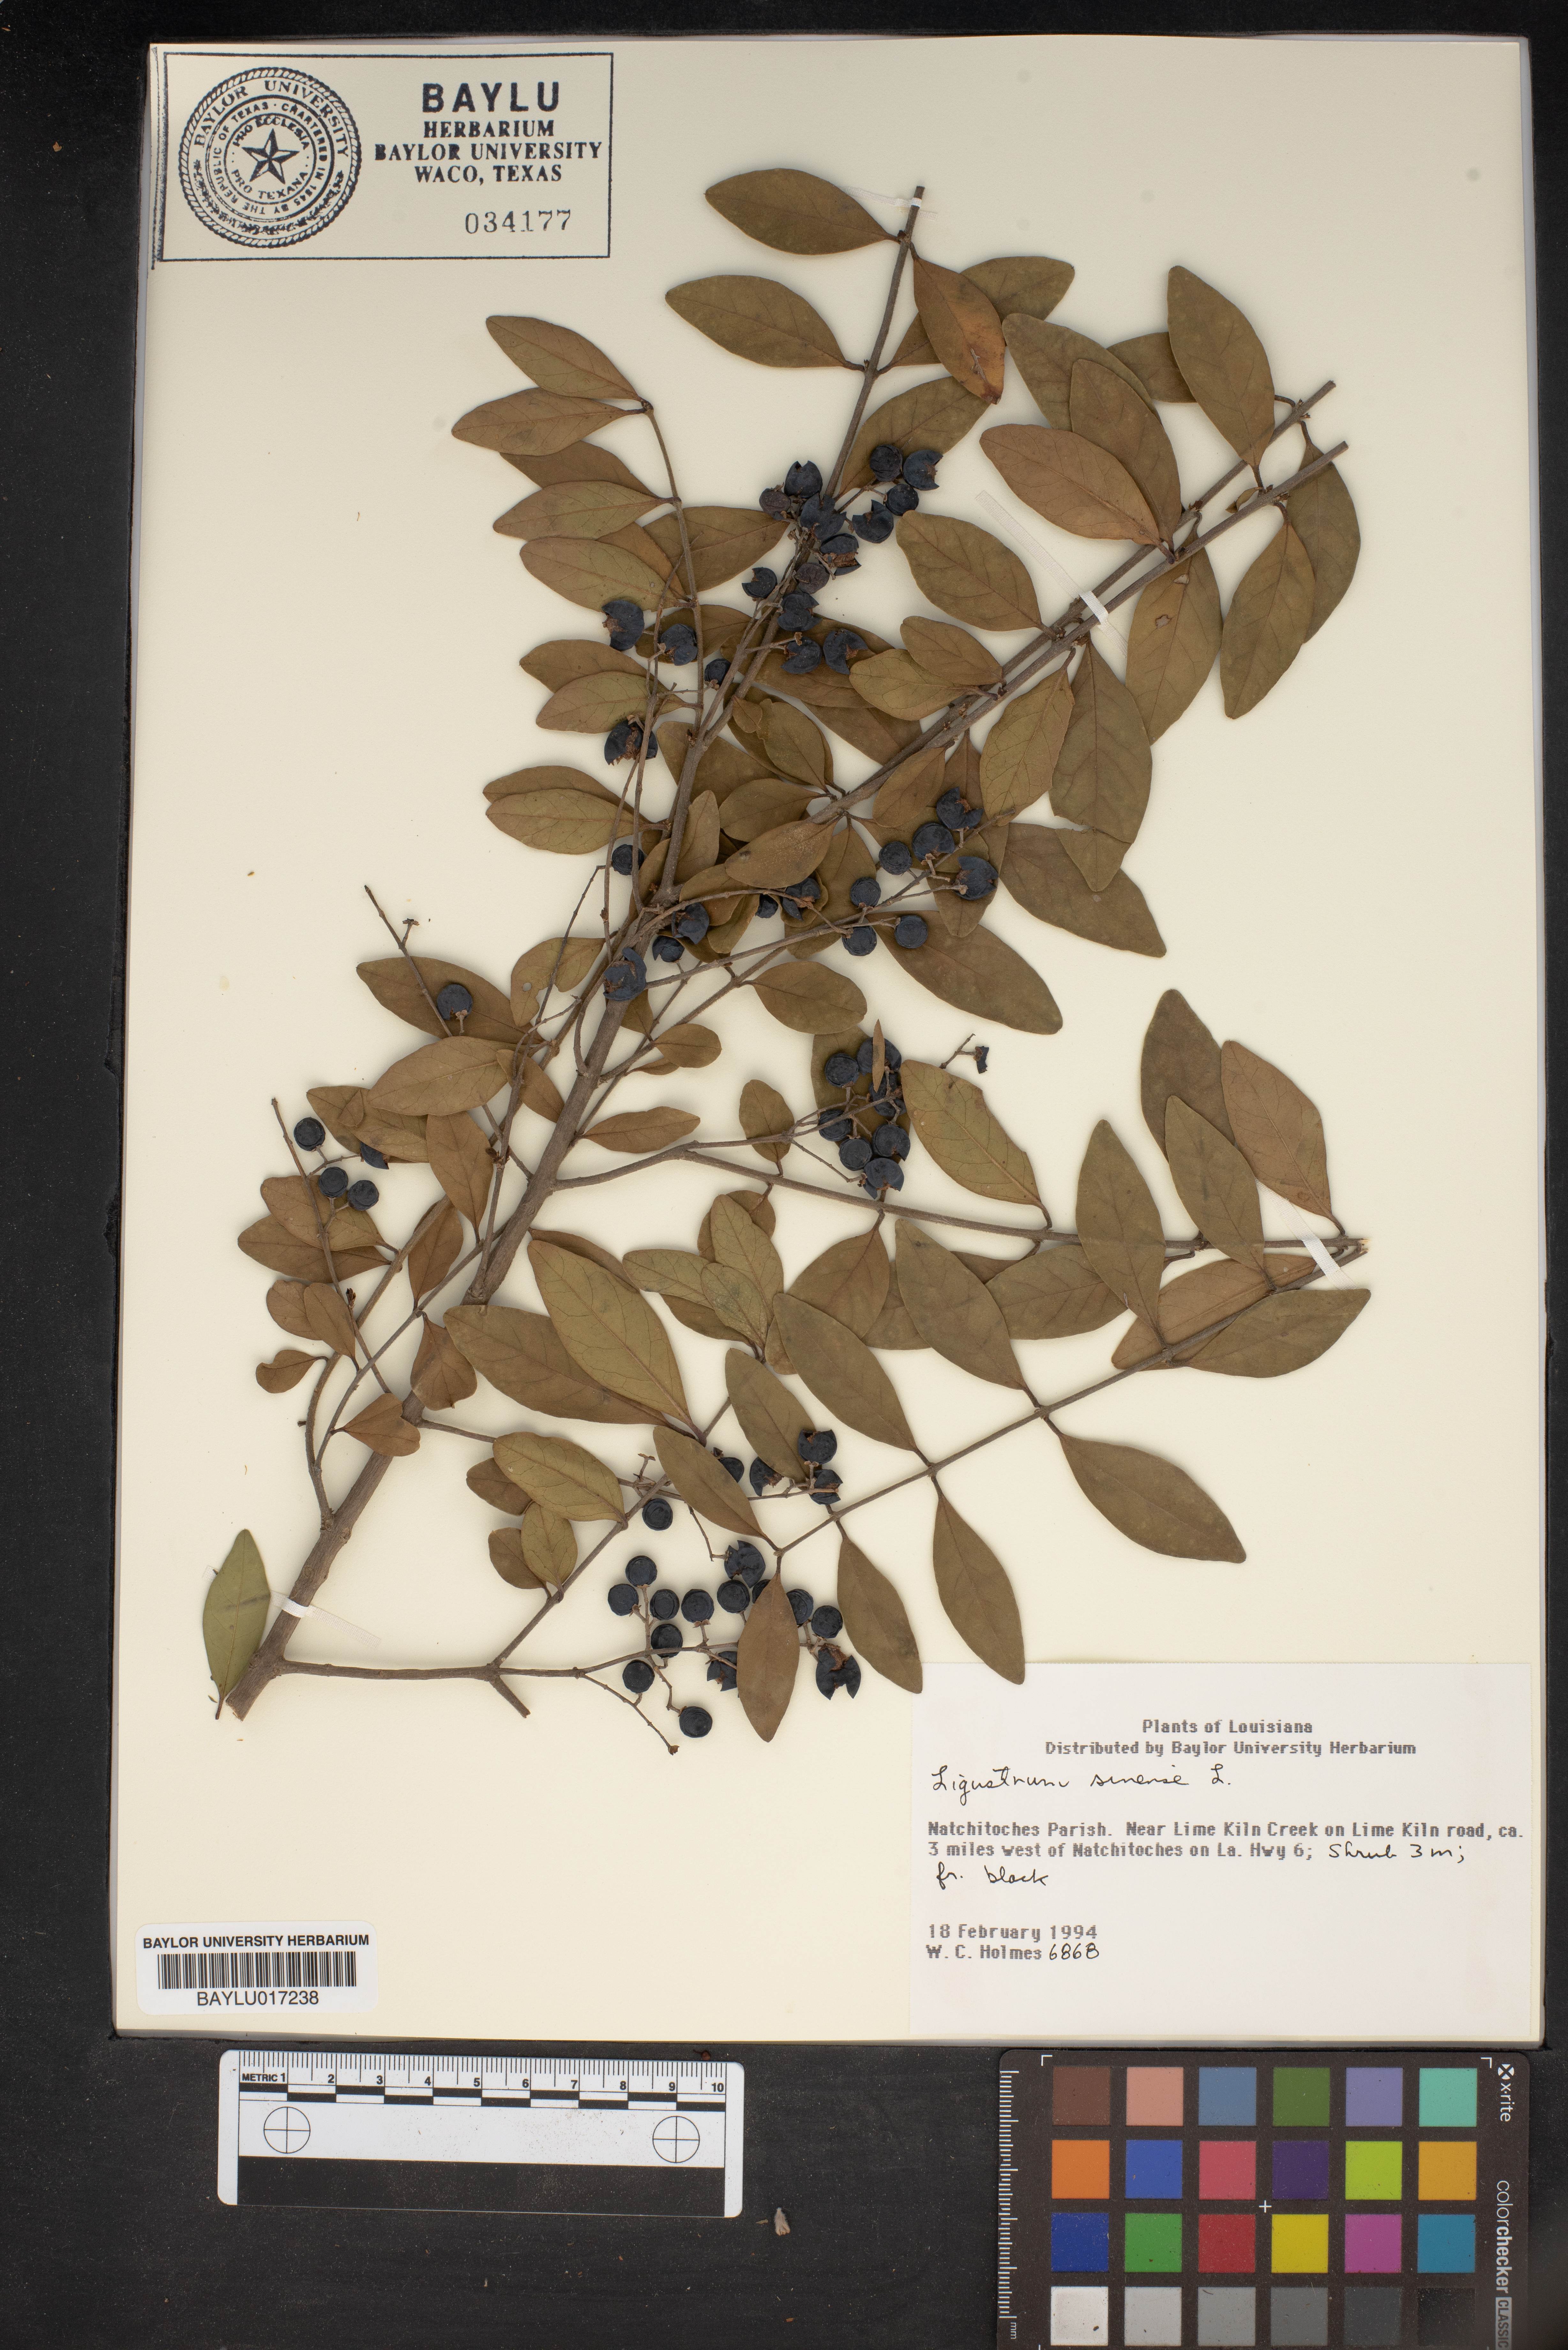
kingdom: Plantae
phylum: Tracheophyta
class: Magnoliopsida
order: Lamiales
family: Oleaceae
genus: Ligustrum
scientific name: Ligustrum sinense
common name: Chinese privet
